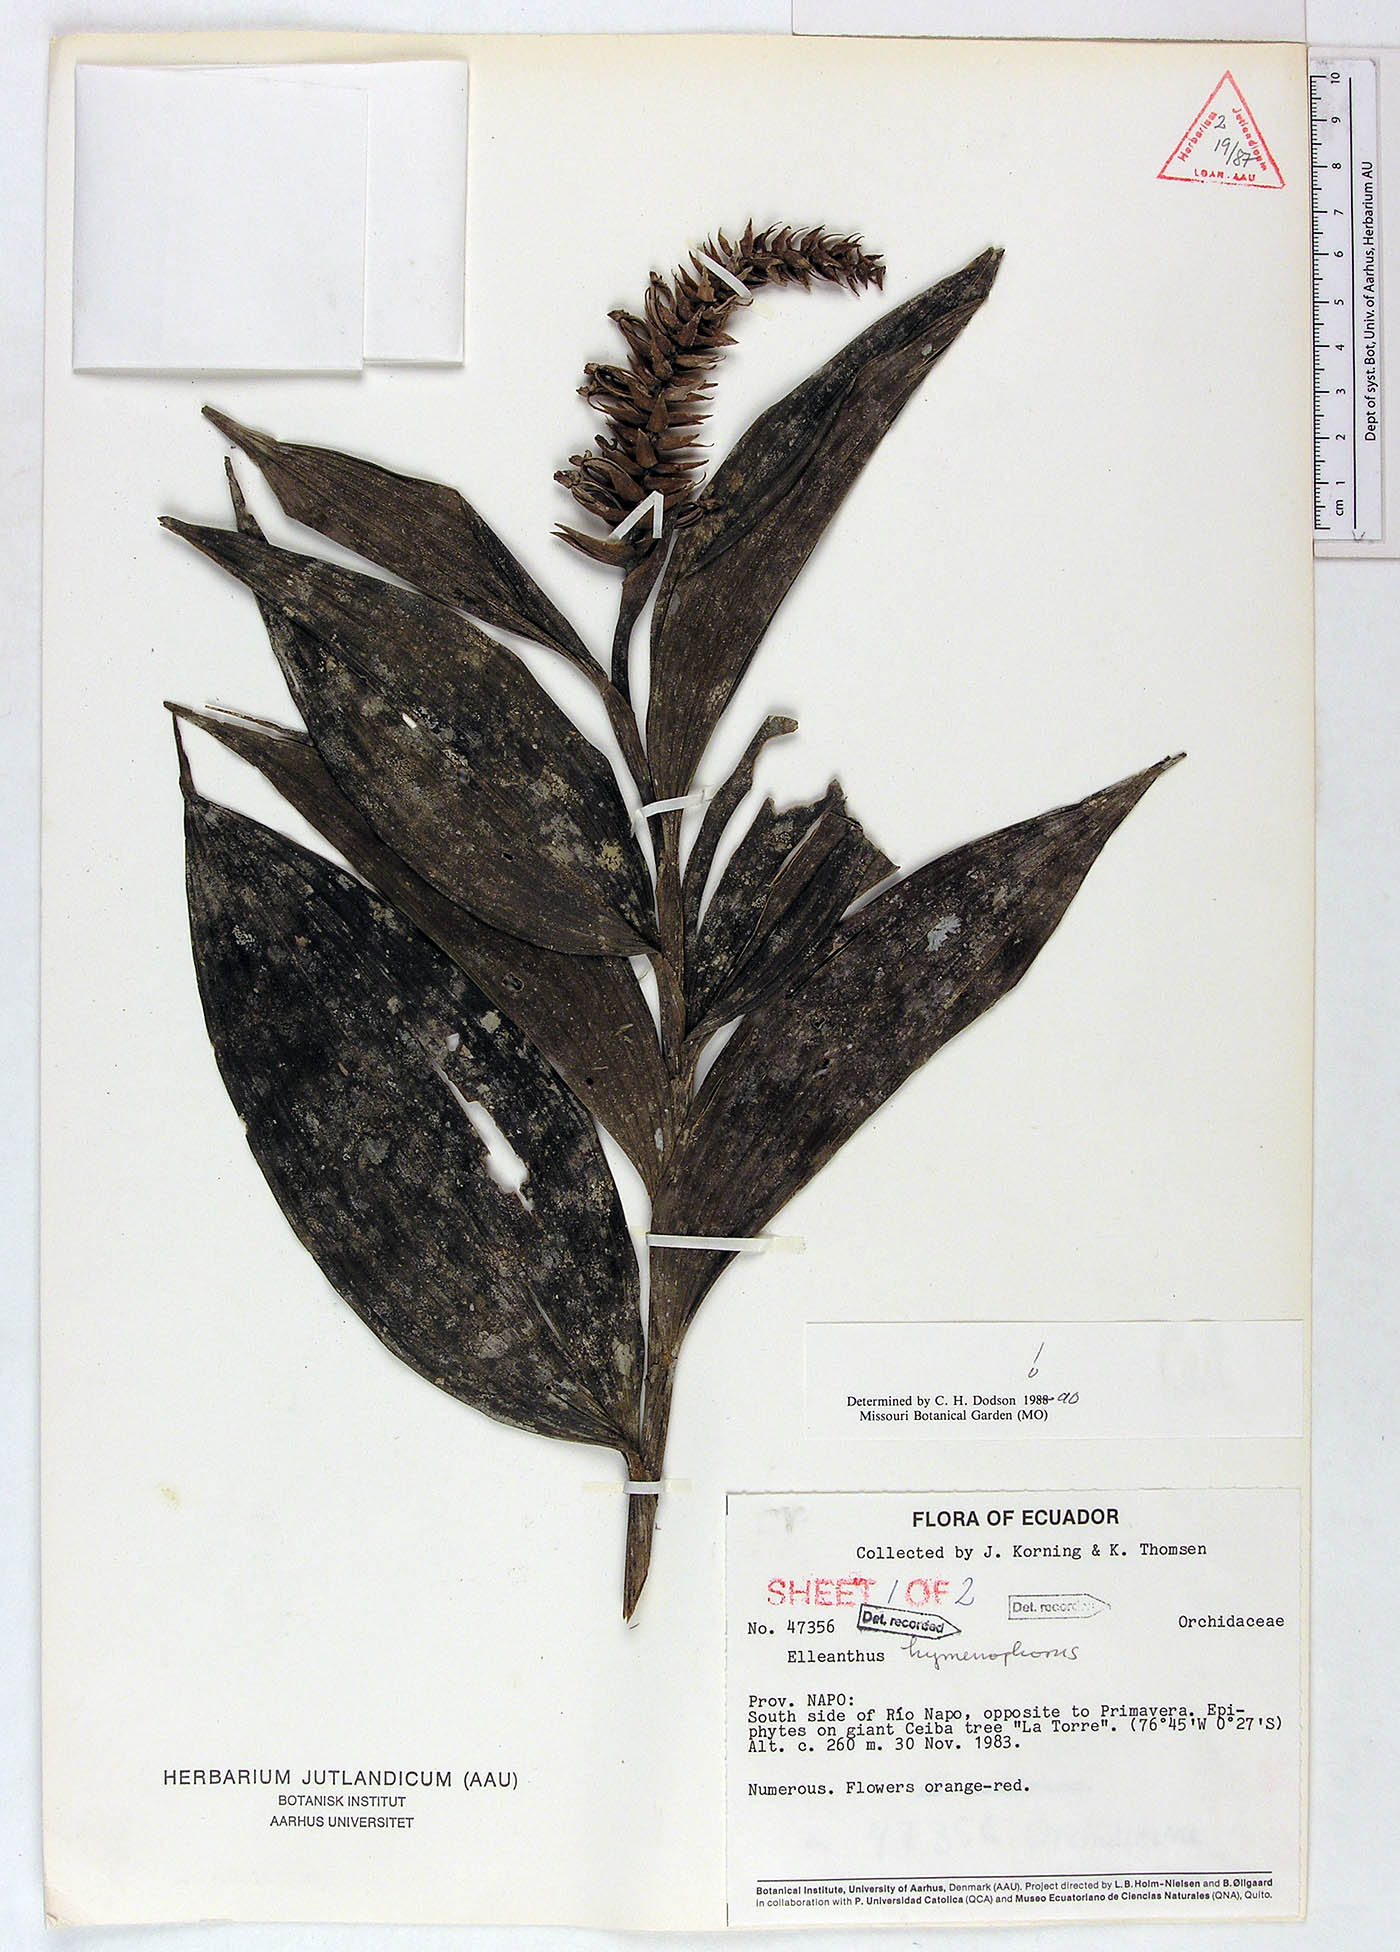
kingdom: Plantae
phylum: Tracheophyta
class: Liliopsida
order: Asparagales
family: Orchidaceae
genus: Elleanthus
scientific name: Elleanthus hymenophorus
